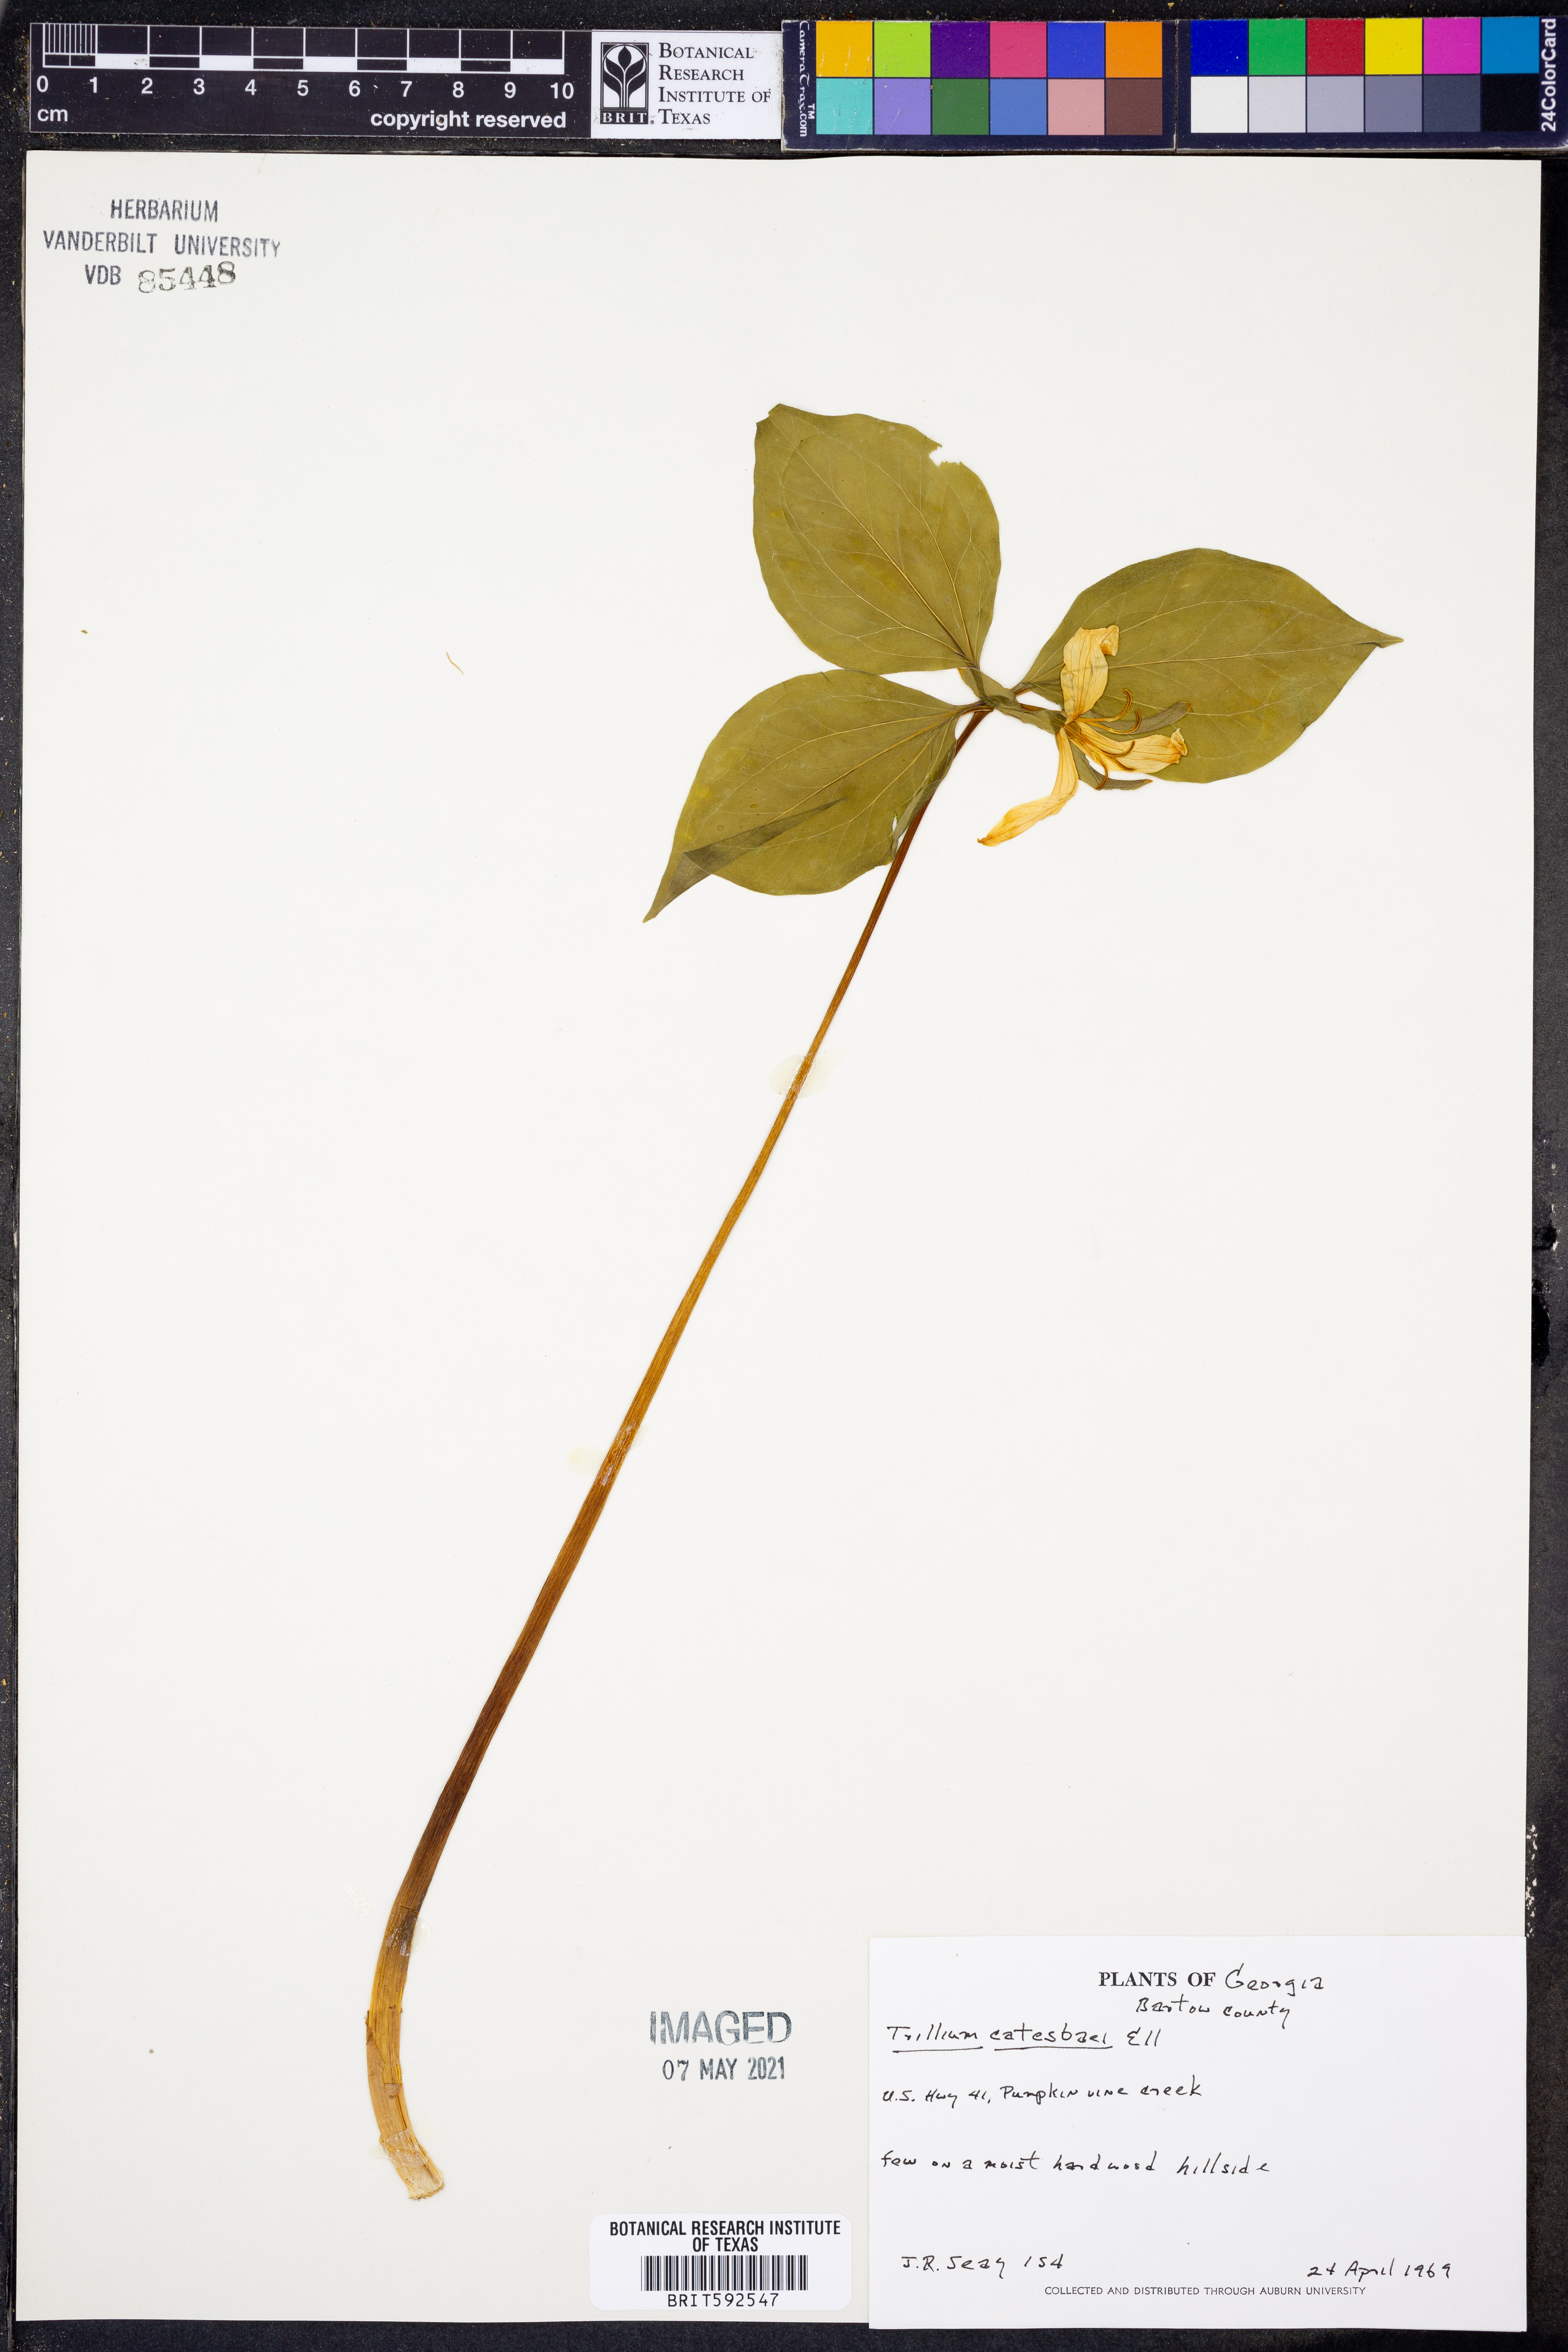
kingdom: Plantae
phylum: Tracheophyta
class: Liliopsida
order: Liliales
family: Melanthiaceae
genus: Trillium
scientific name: Trillium catesbaei
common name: Bashful trillium
